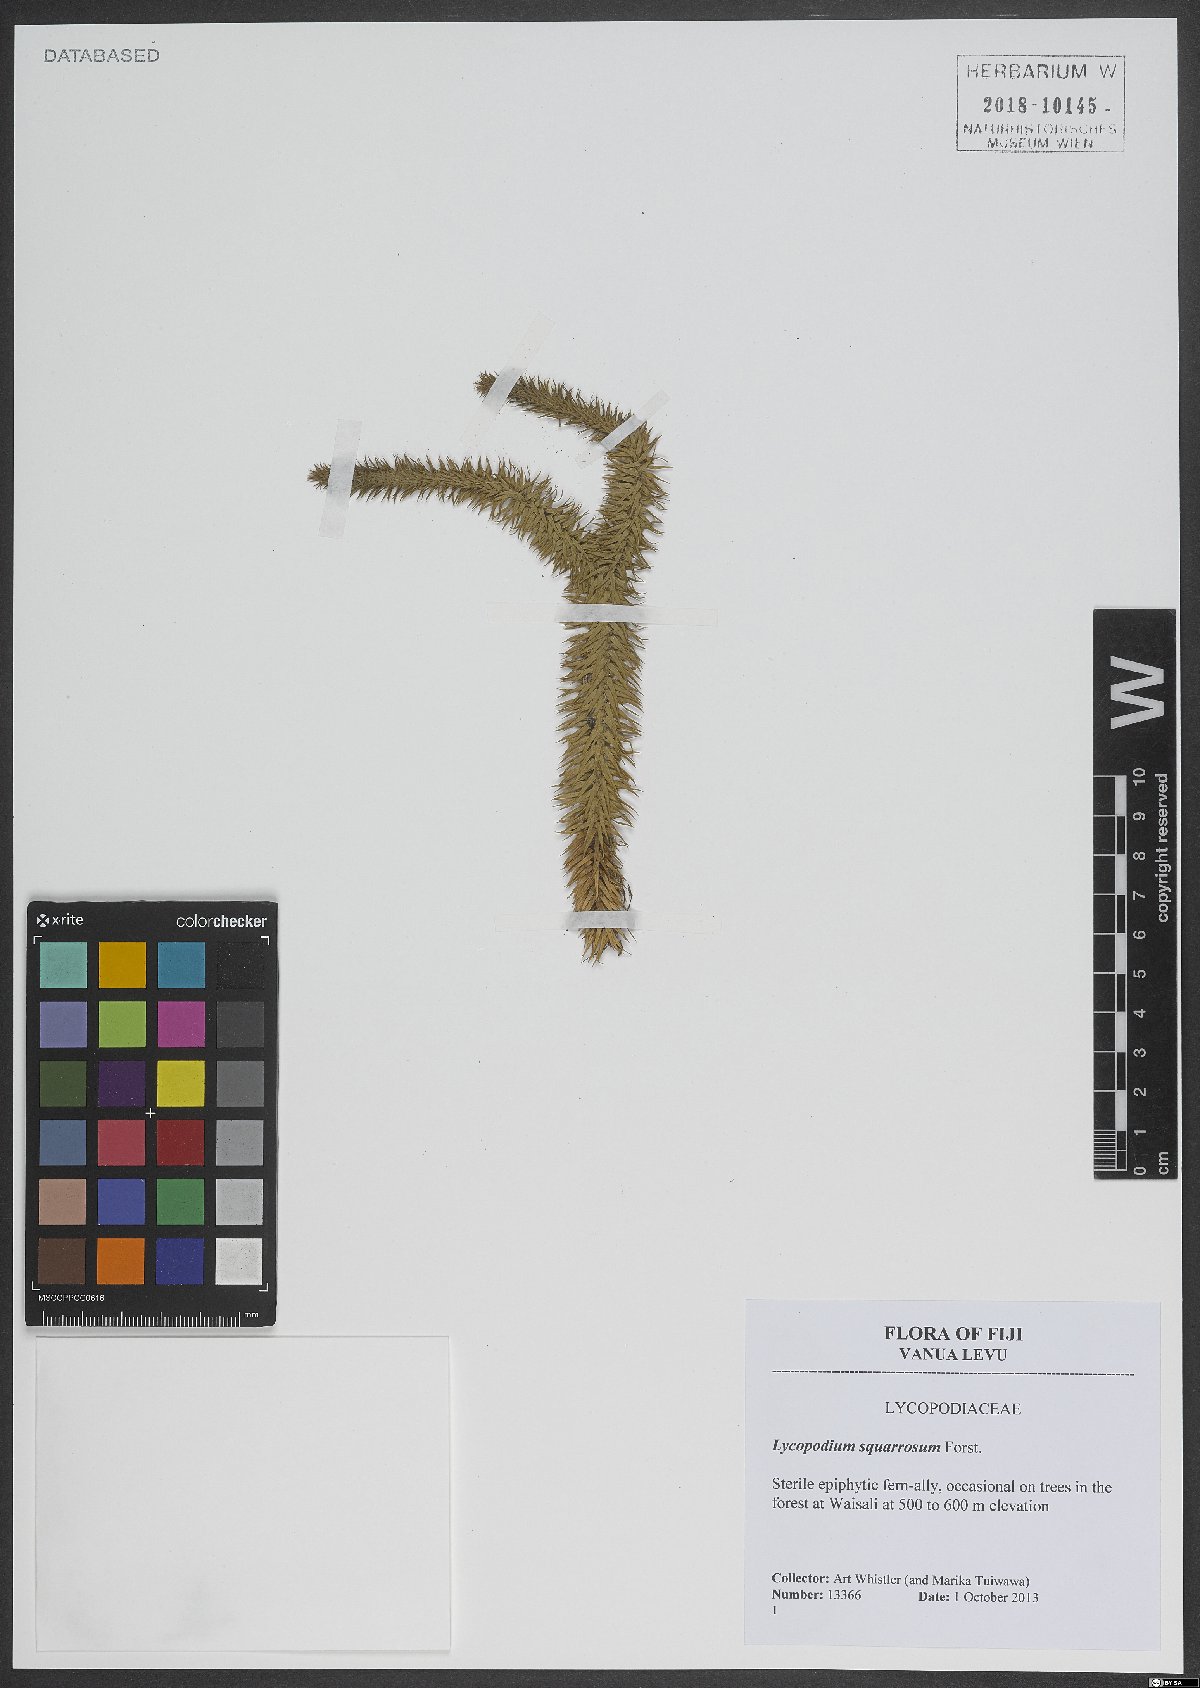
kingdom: Plantae
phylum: Tracheophyta
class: Lycopodiopsida
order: Lycopodiales
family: Lycopodiaceae
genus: Phlegmariurus
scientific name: Phlegmariurus squarrosus
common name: Rock tassel-fern
